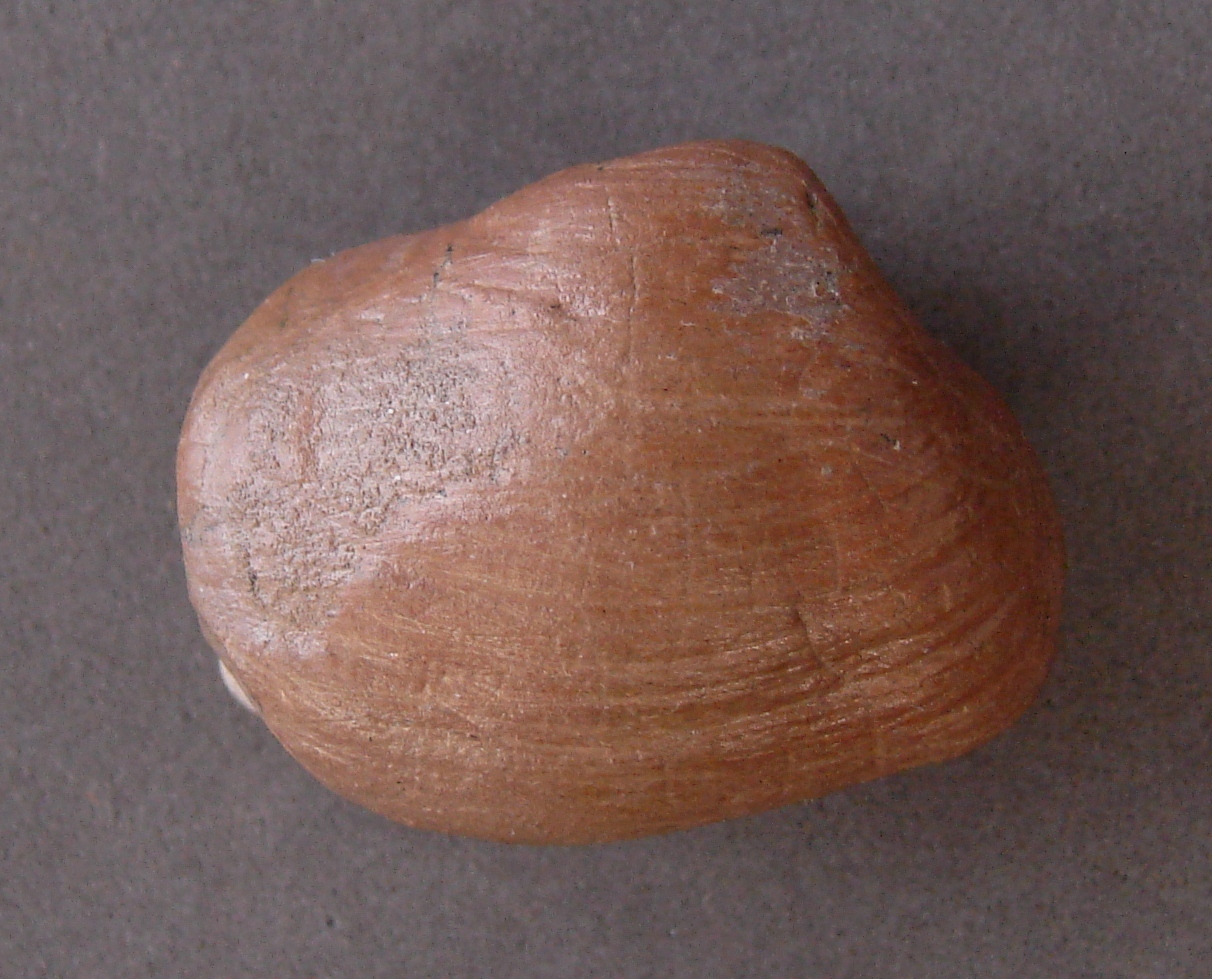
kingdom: Animalia
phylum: Mollusca
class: Bivalvia
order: Myida
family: Ceratomyidae
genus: Gresslya
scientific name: Gresslya
